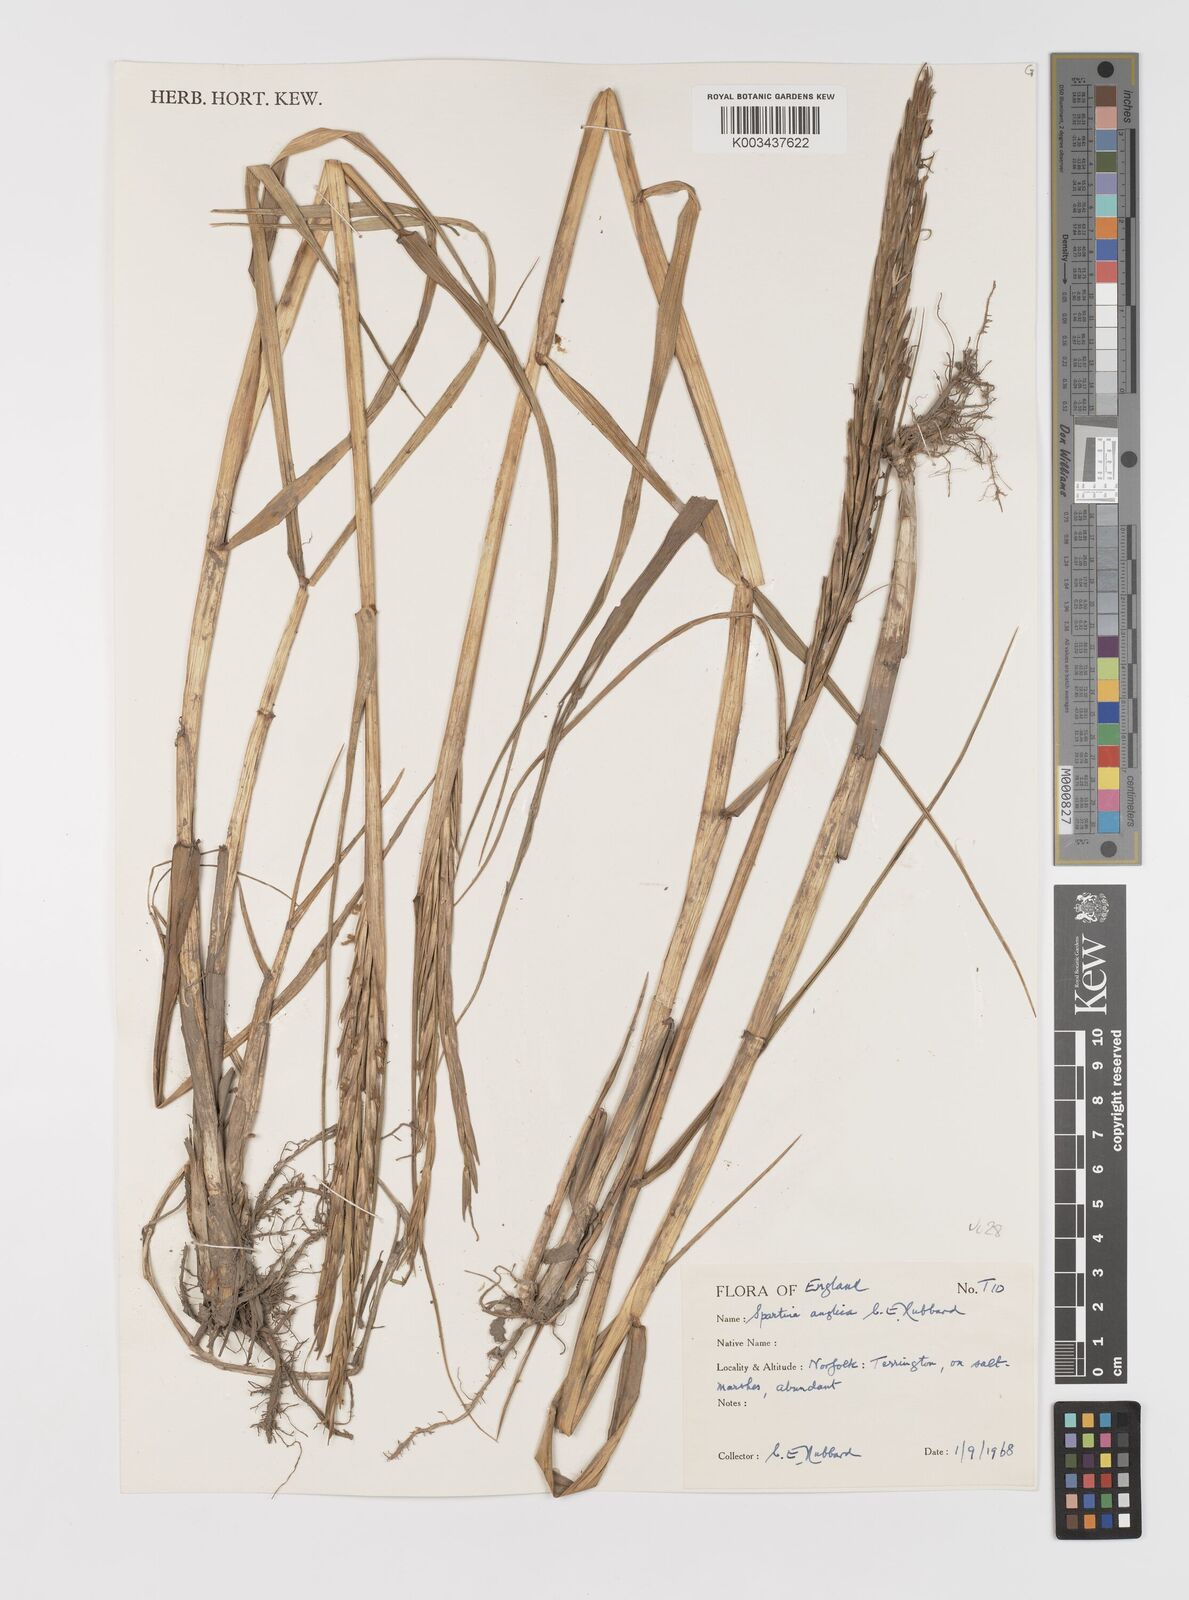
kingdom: Plantae
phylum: Tracheophyta
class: Liliopsida
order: Poales
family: Poaceae
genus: Sporobolus
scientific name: Sporobolus anglicus
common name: English cordgrass
